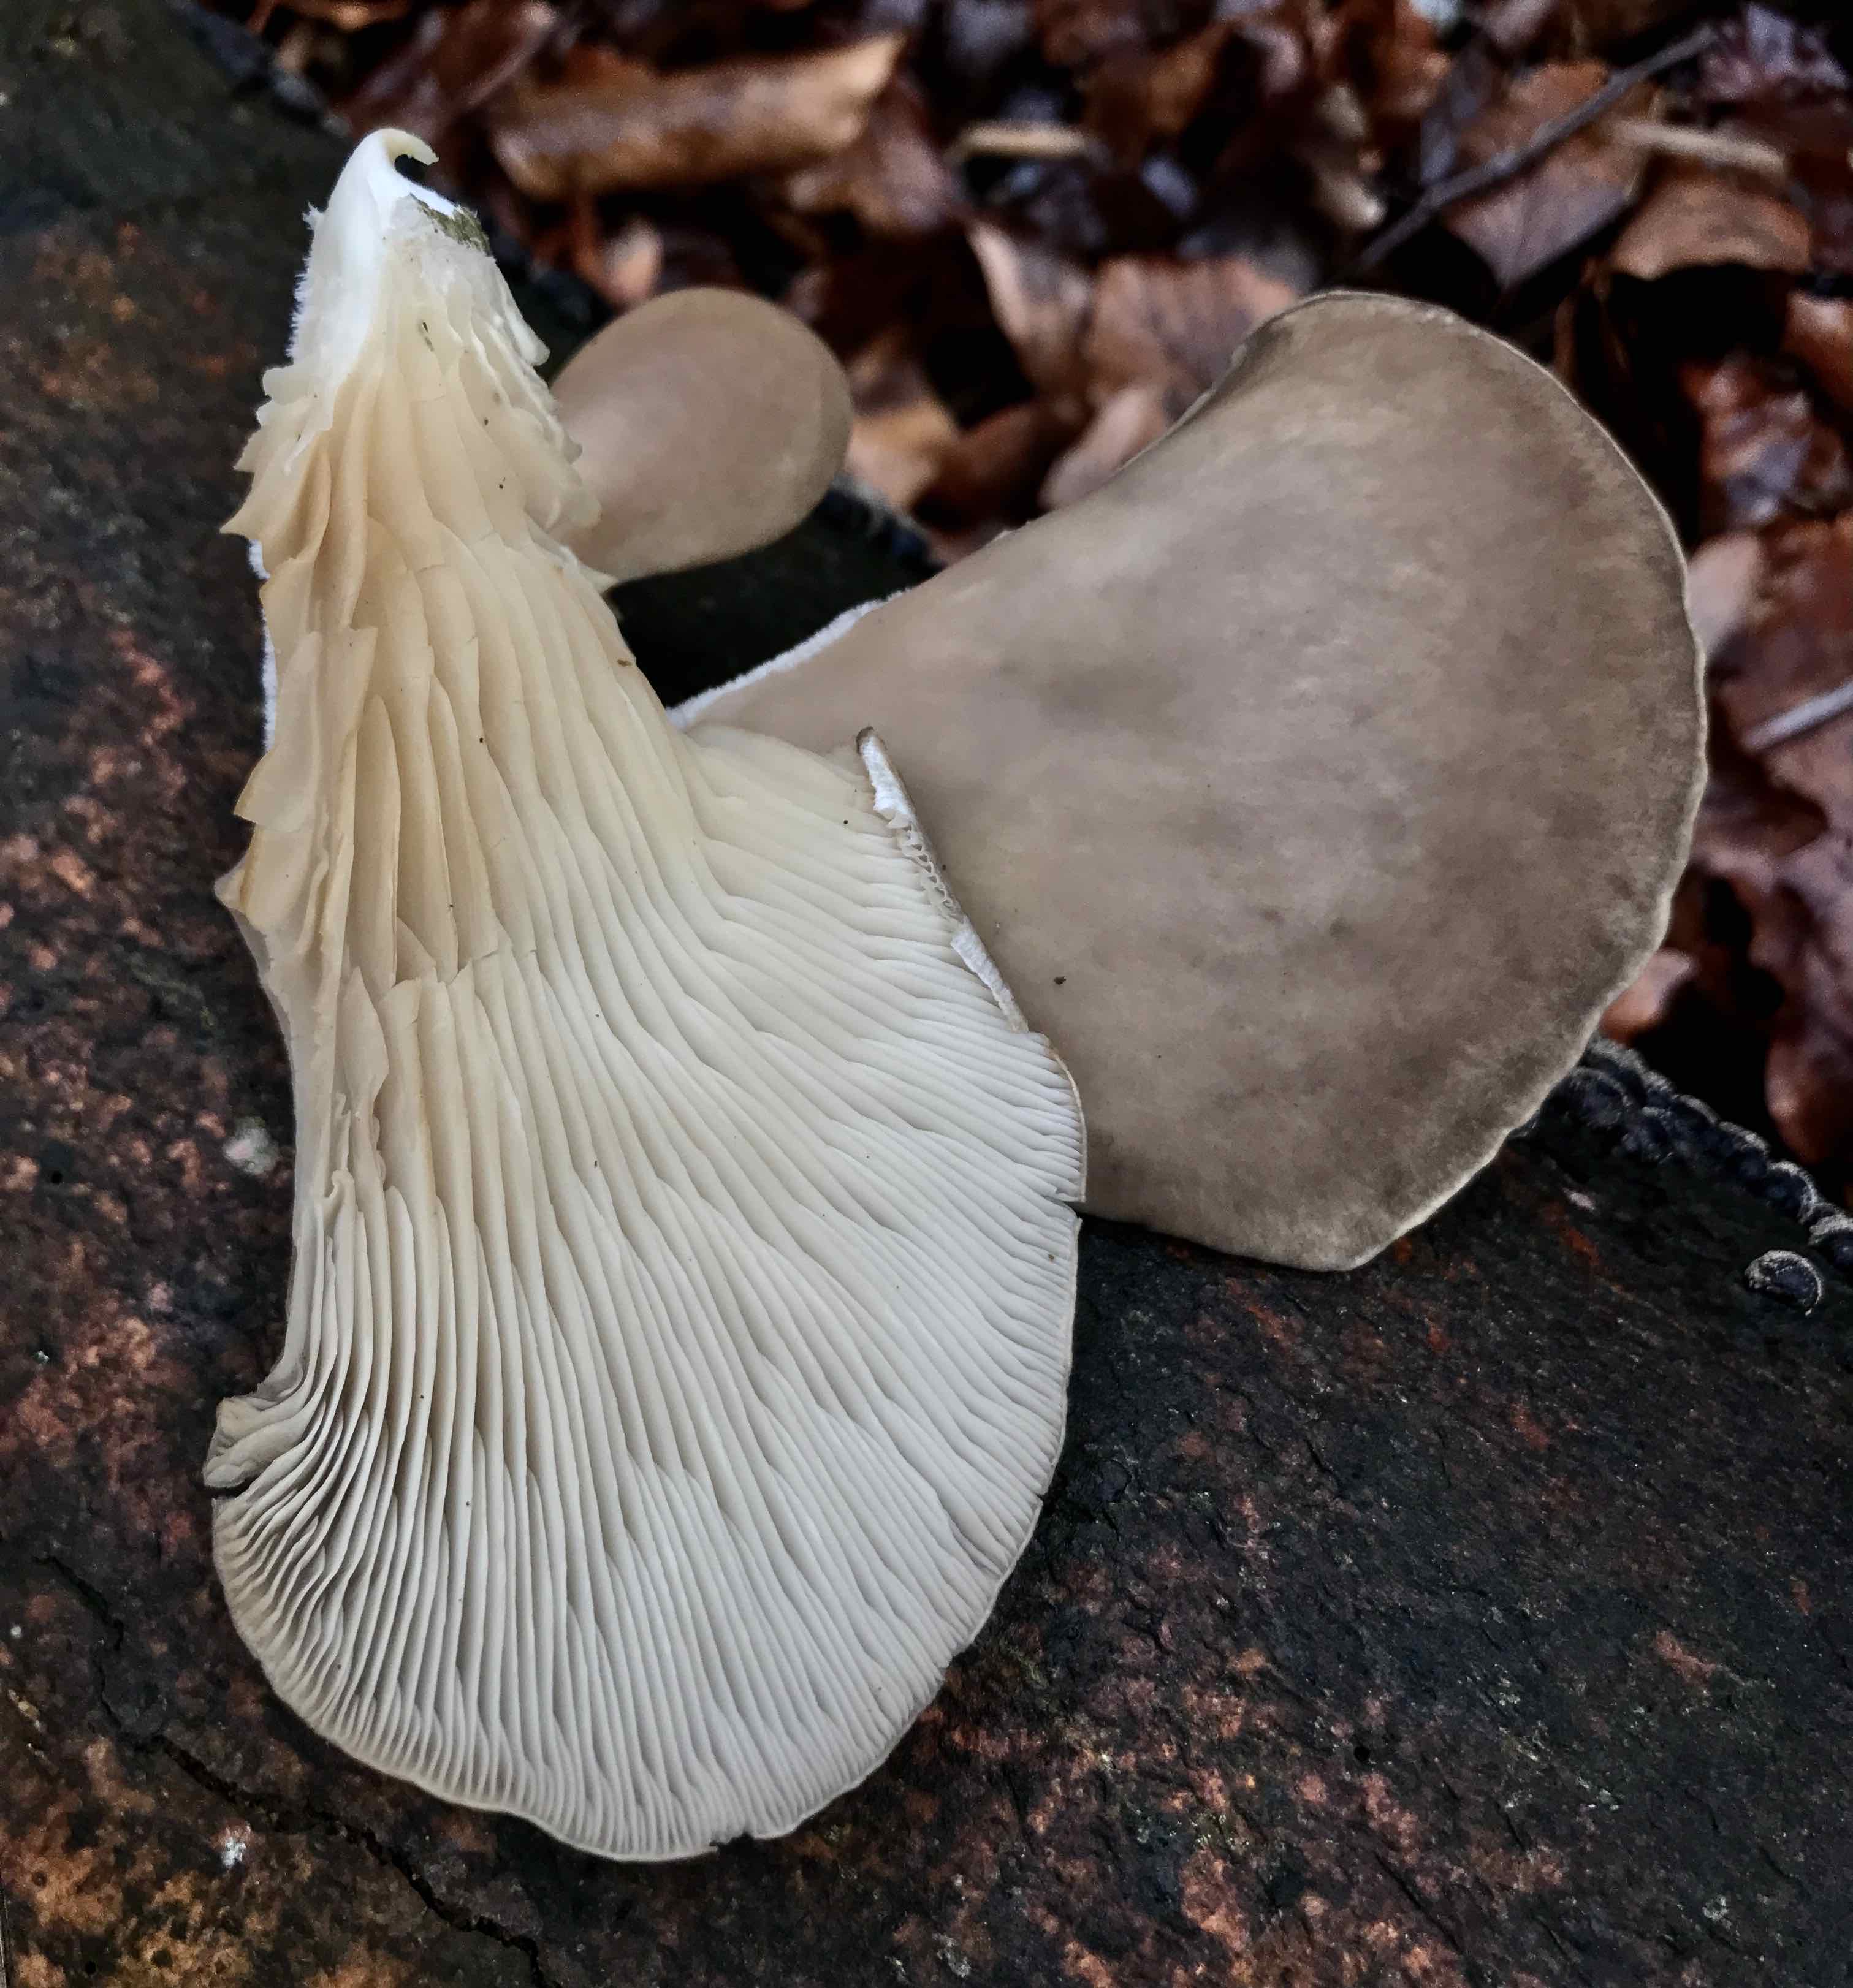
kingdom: Fungi
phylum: Basidiomycota
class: Agaricomycetes
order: Agaricales
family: Pleurotaceae
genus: Pleurotus
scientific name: Pleurotus ostreatus
